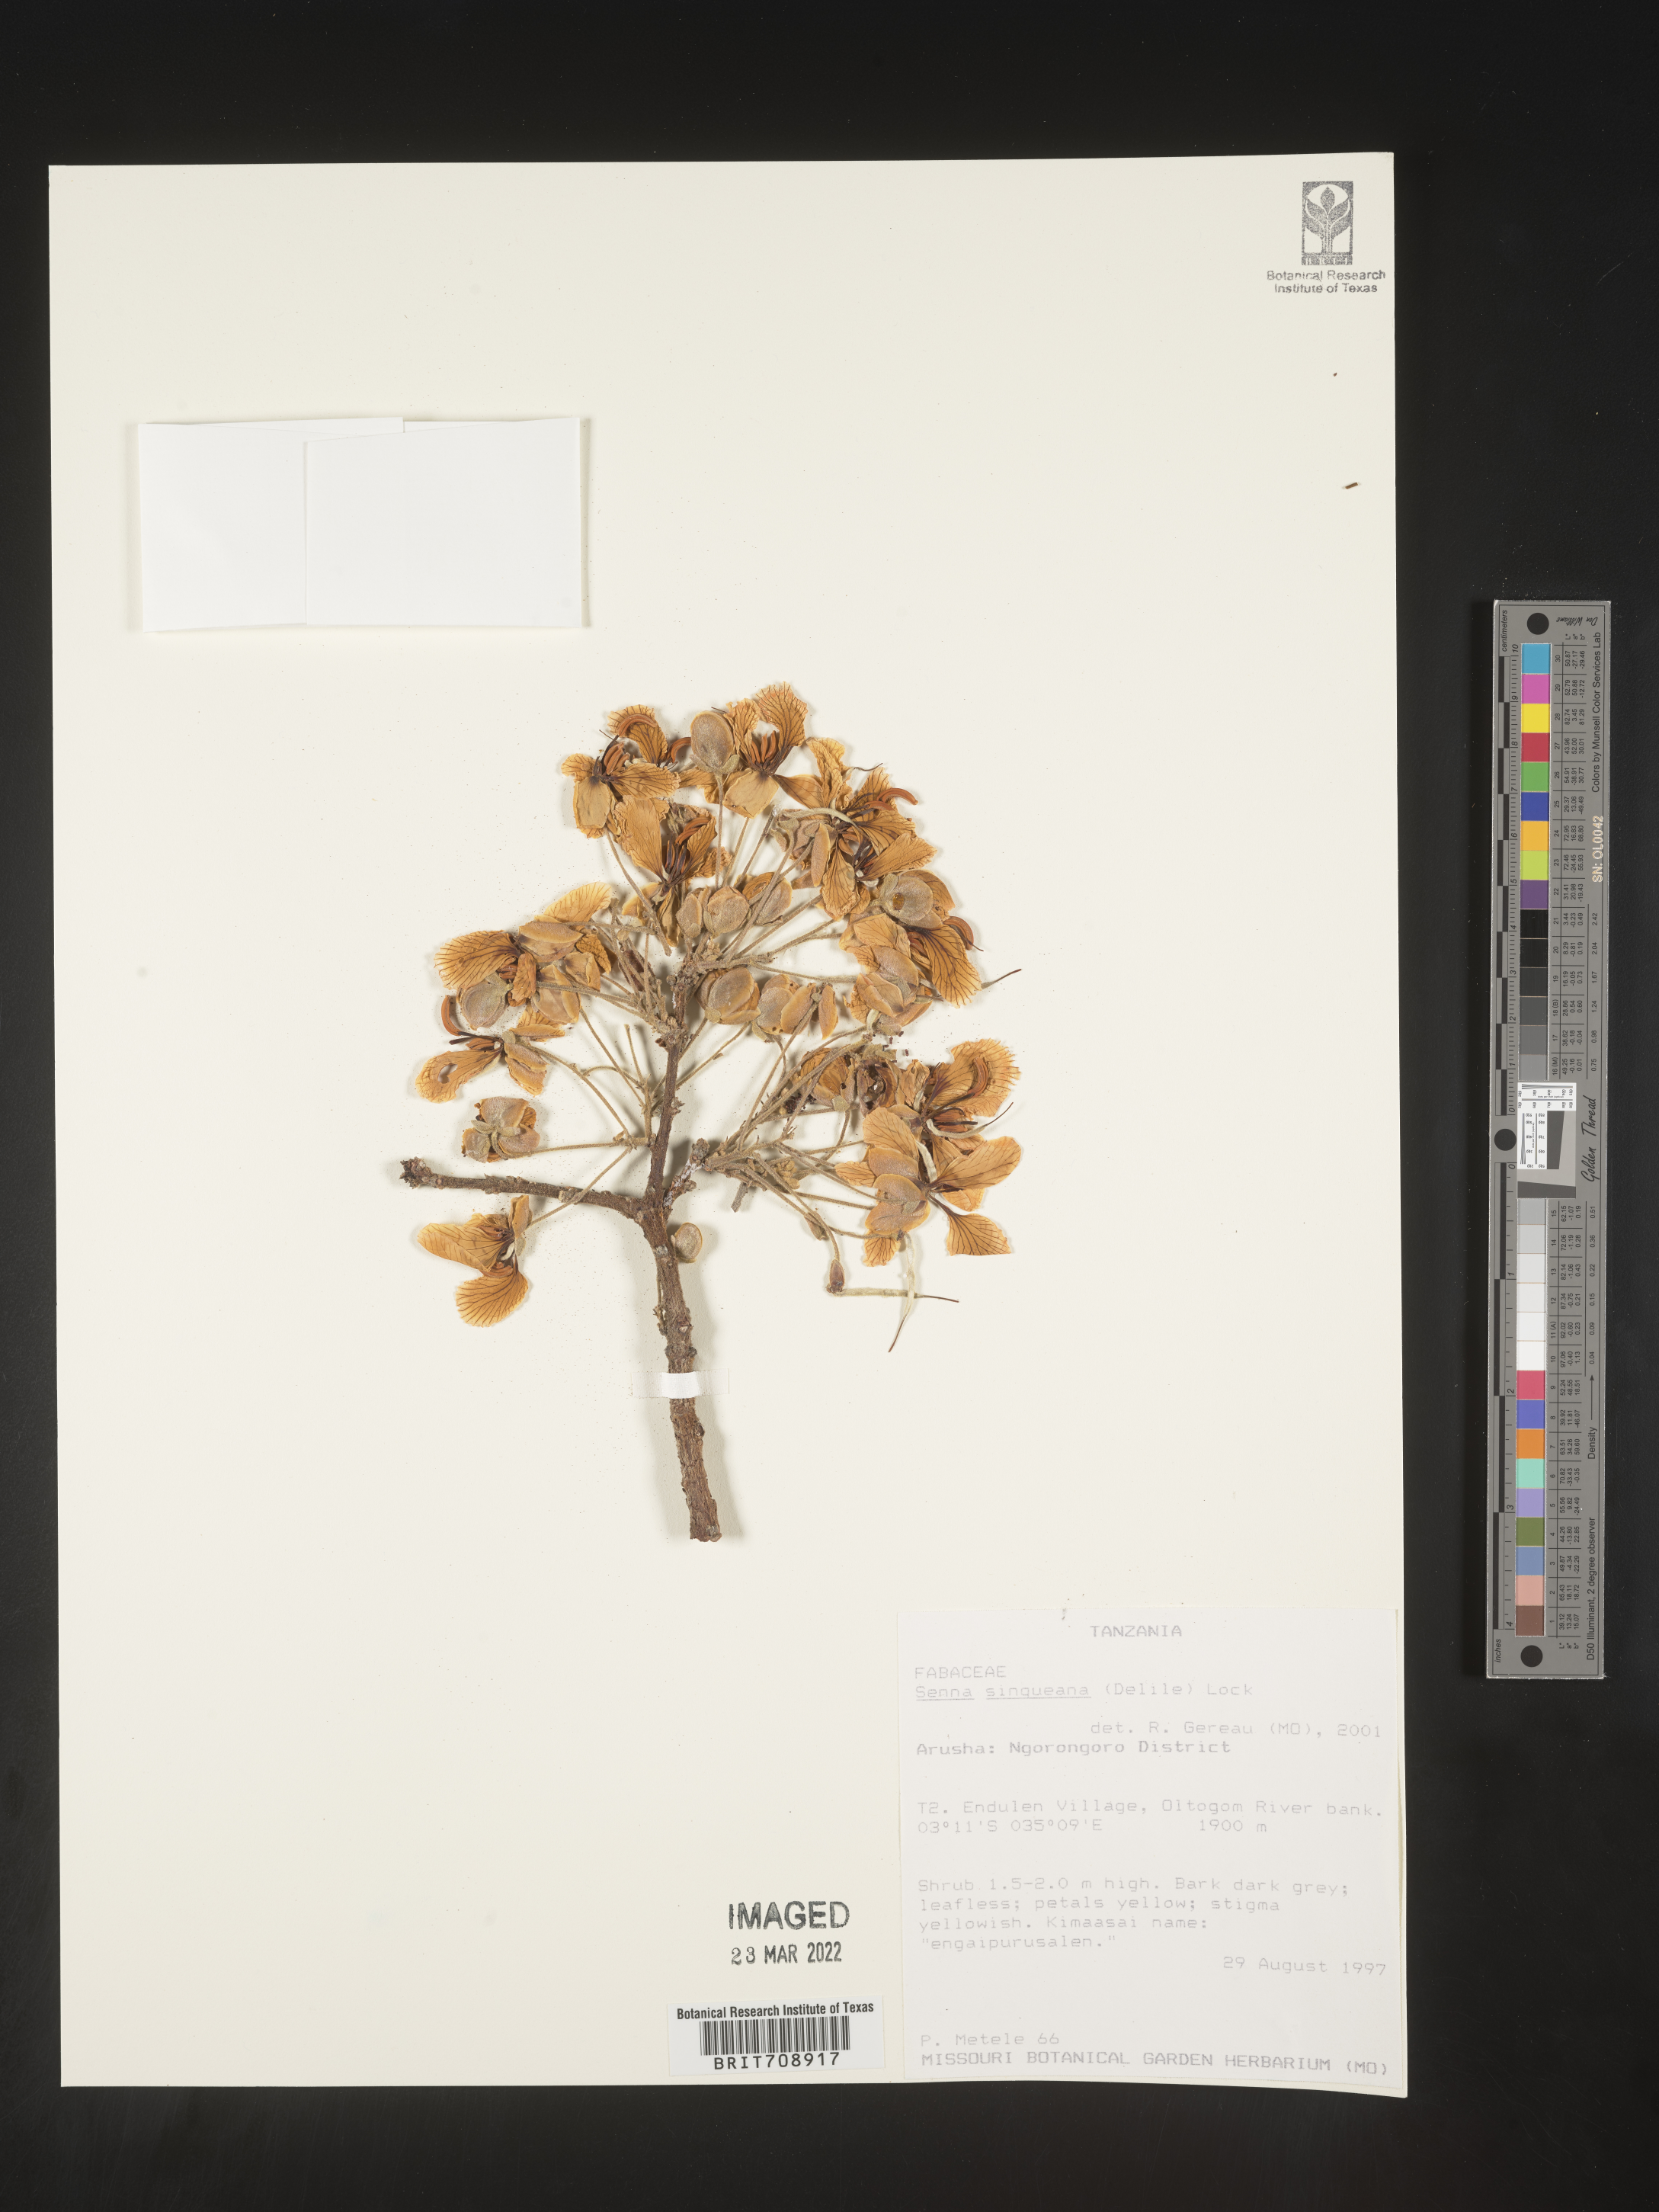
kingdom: Plantae
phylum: Tracheophyta
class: Magnoliopsida
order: Fabales
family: Fabaceae
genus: Senna
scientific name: Senna
